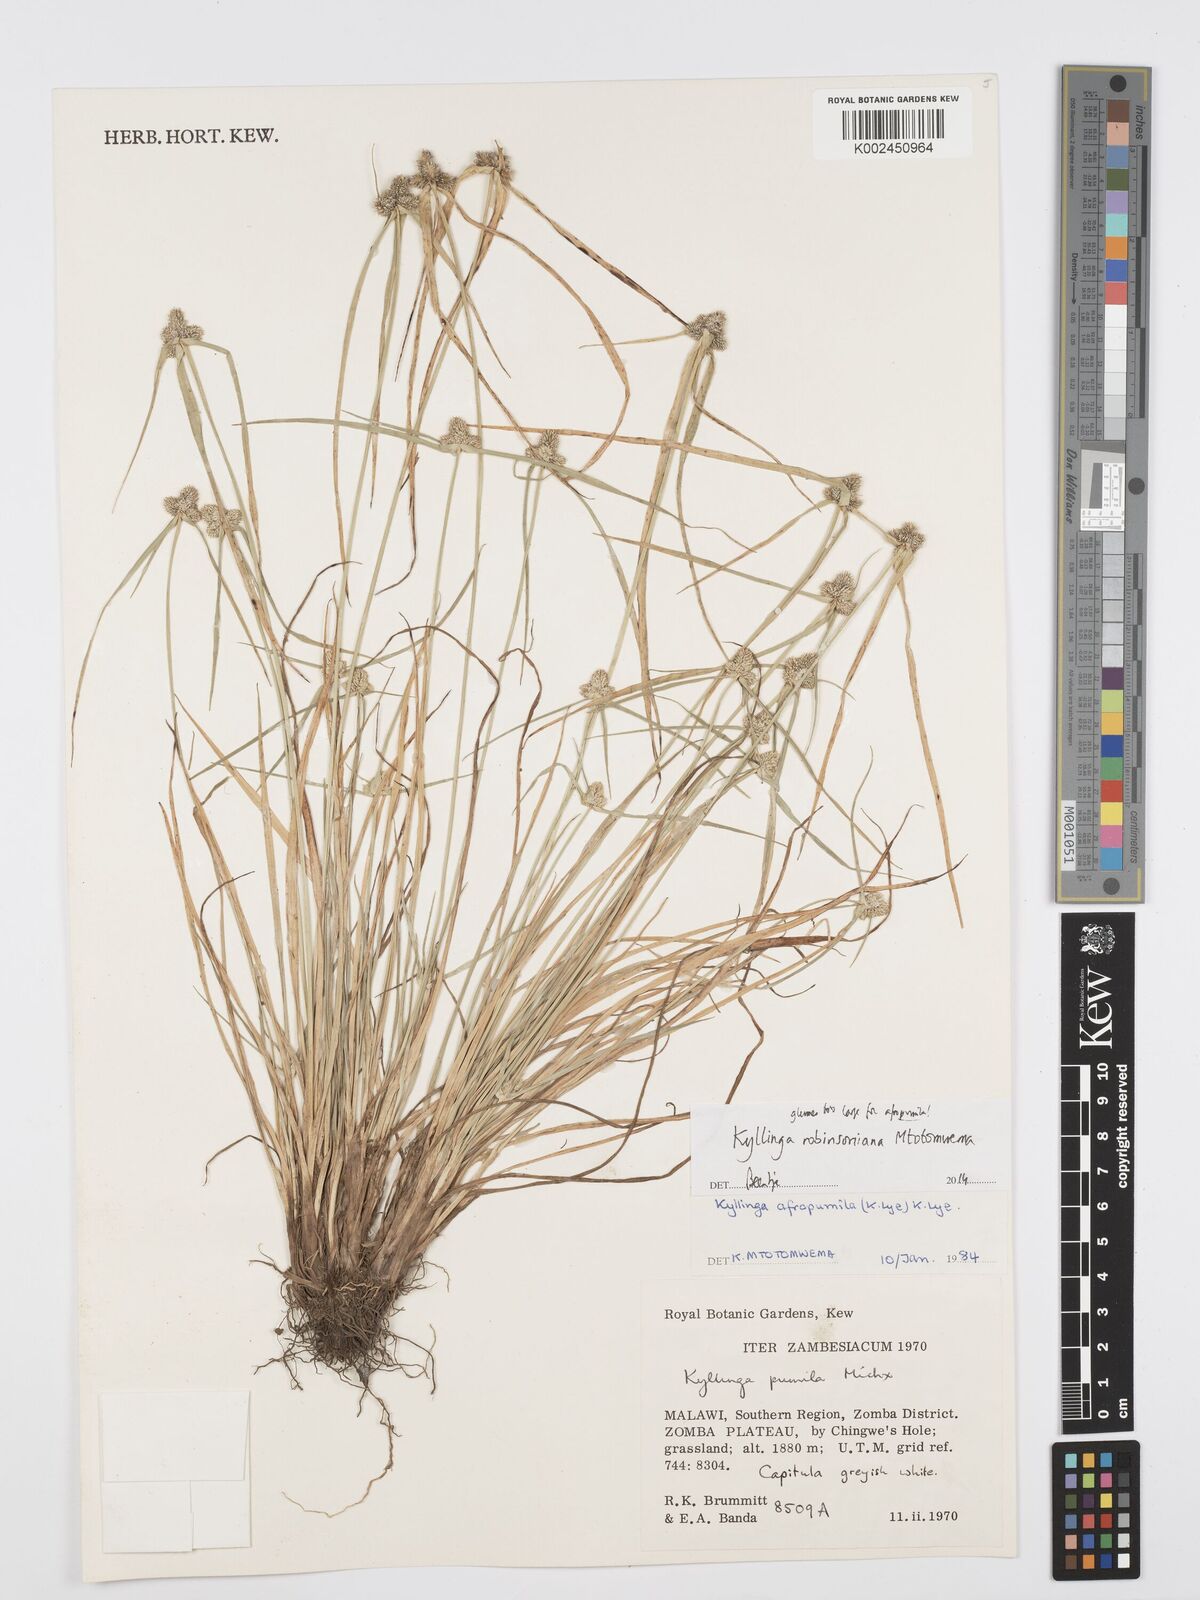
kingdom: Plantae
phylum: Tracheophyta
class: Liliopsida
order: Poales
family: Cyperaceae
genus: Cyperus
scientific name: Cyperus robinsonianus
